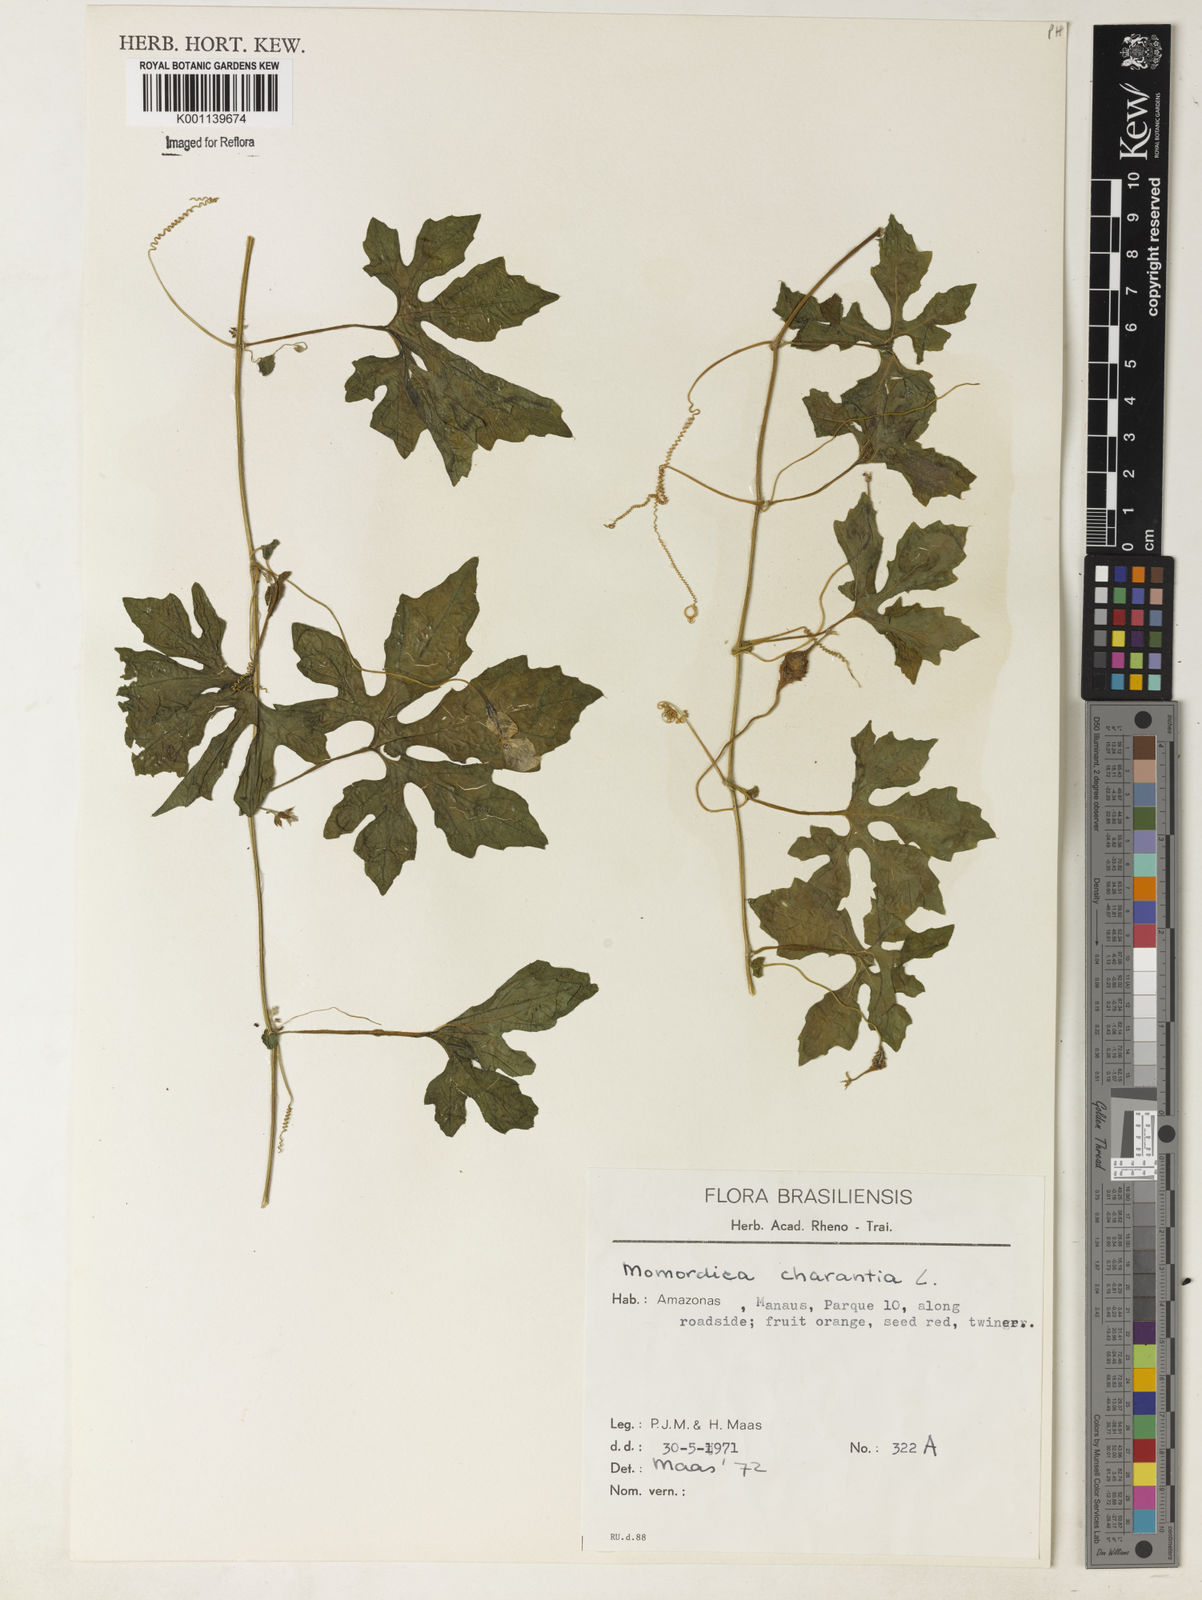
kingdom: Plantae
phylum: Tracheophyta
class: Magnoliopsida
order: Cucurbitales
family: Cucurbitaceae
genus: Momordica
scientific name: Momordica charantia
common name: Balsampear
